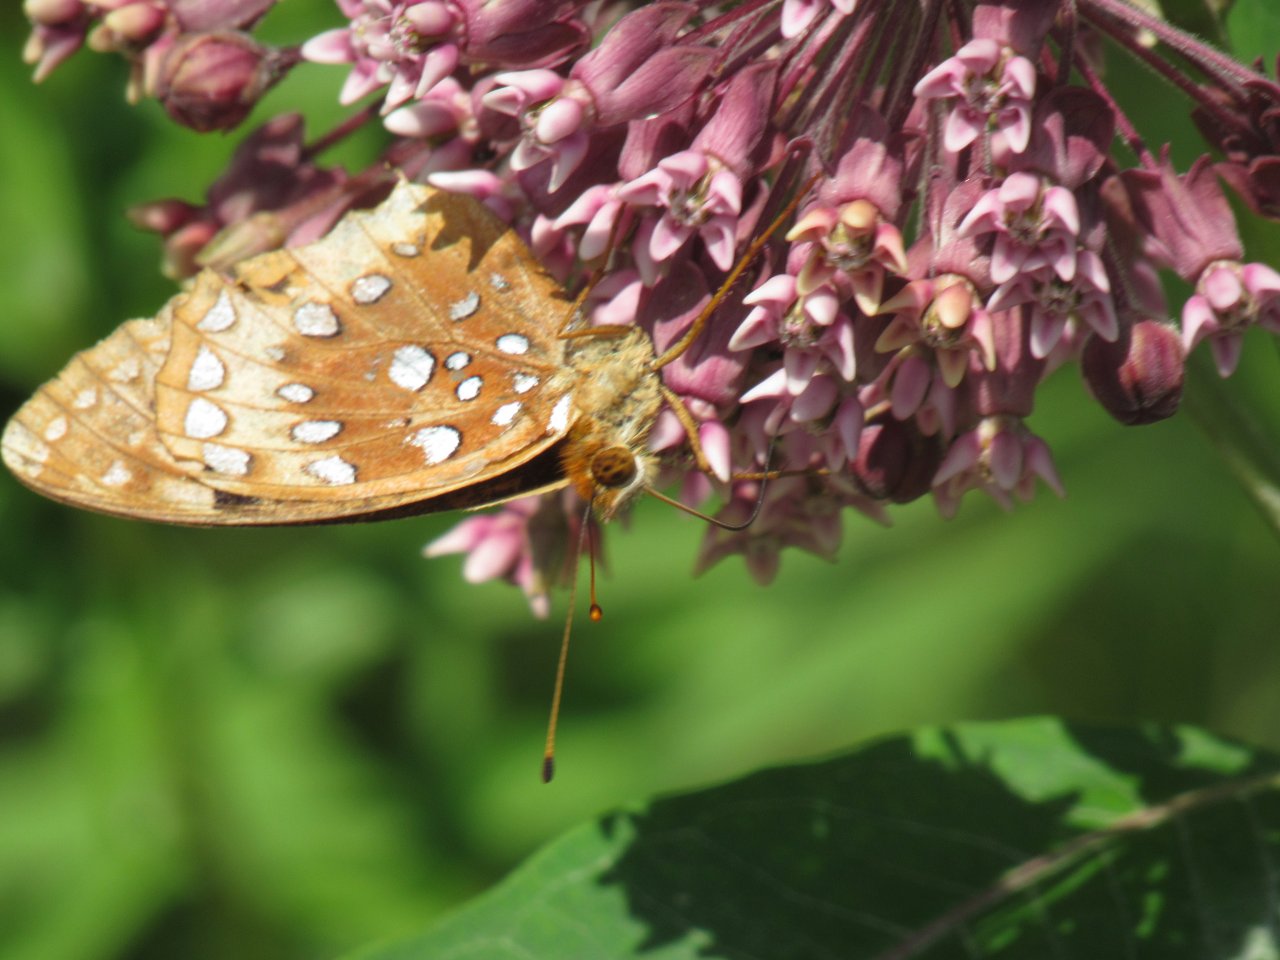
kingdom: Animalia
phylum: Arthropoda
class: Insecta
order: Lepidoptera
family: Nymphalidae
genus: Speyeria
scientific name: Speyeria cybele
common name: Great Spangled Fritillary
